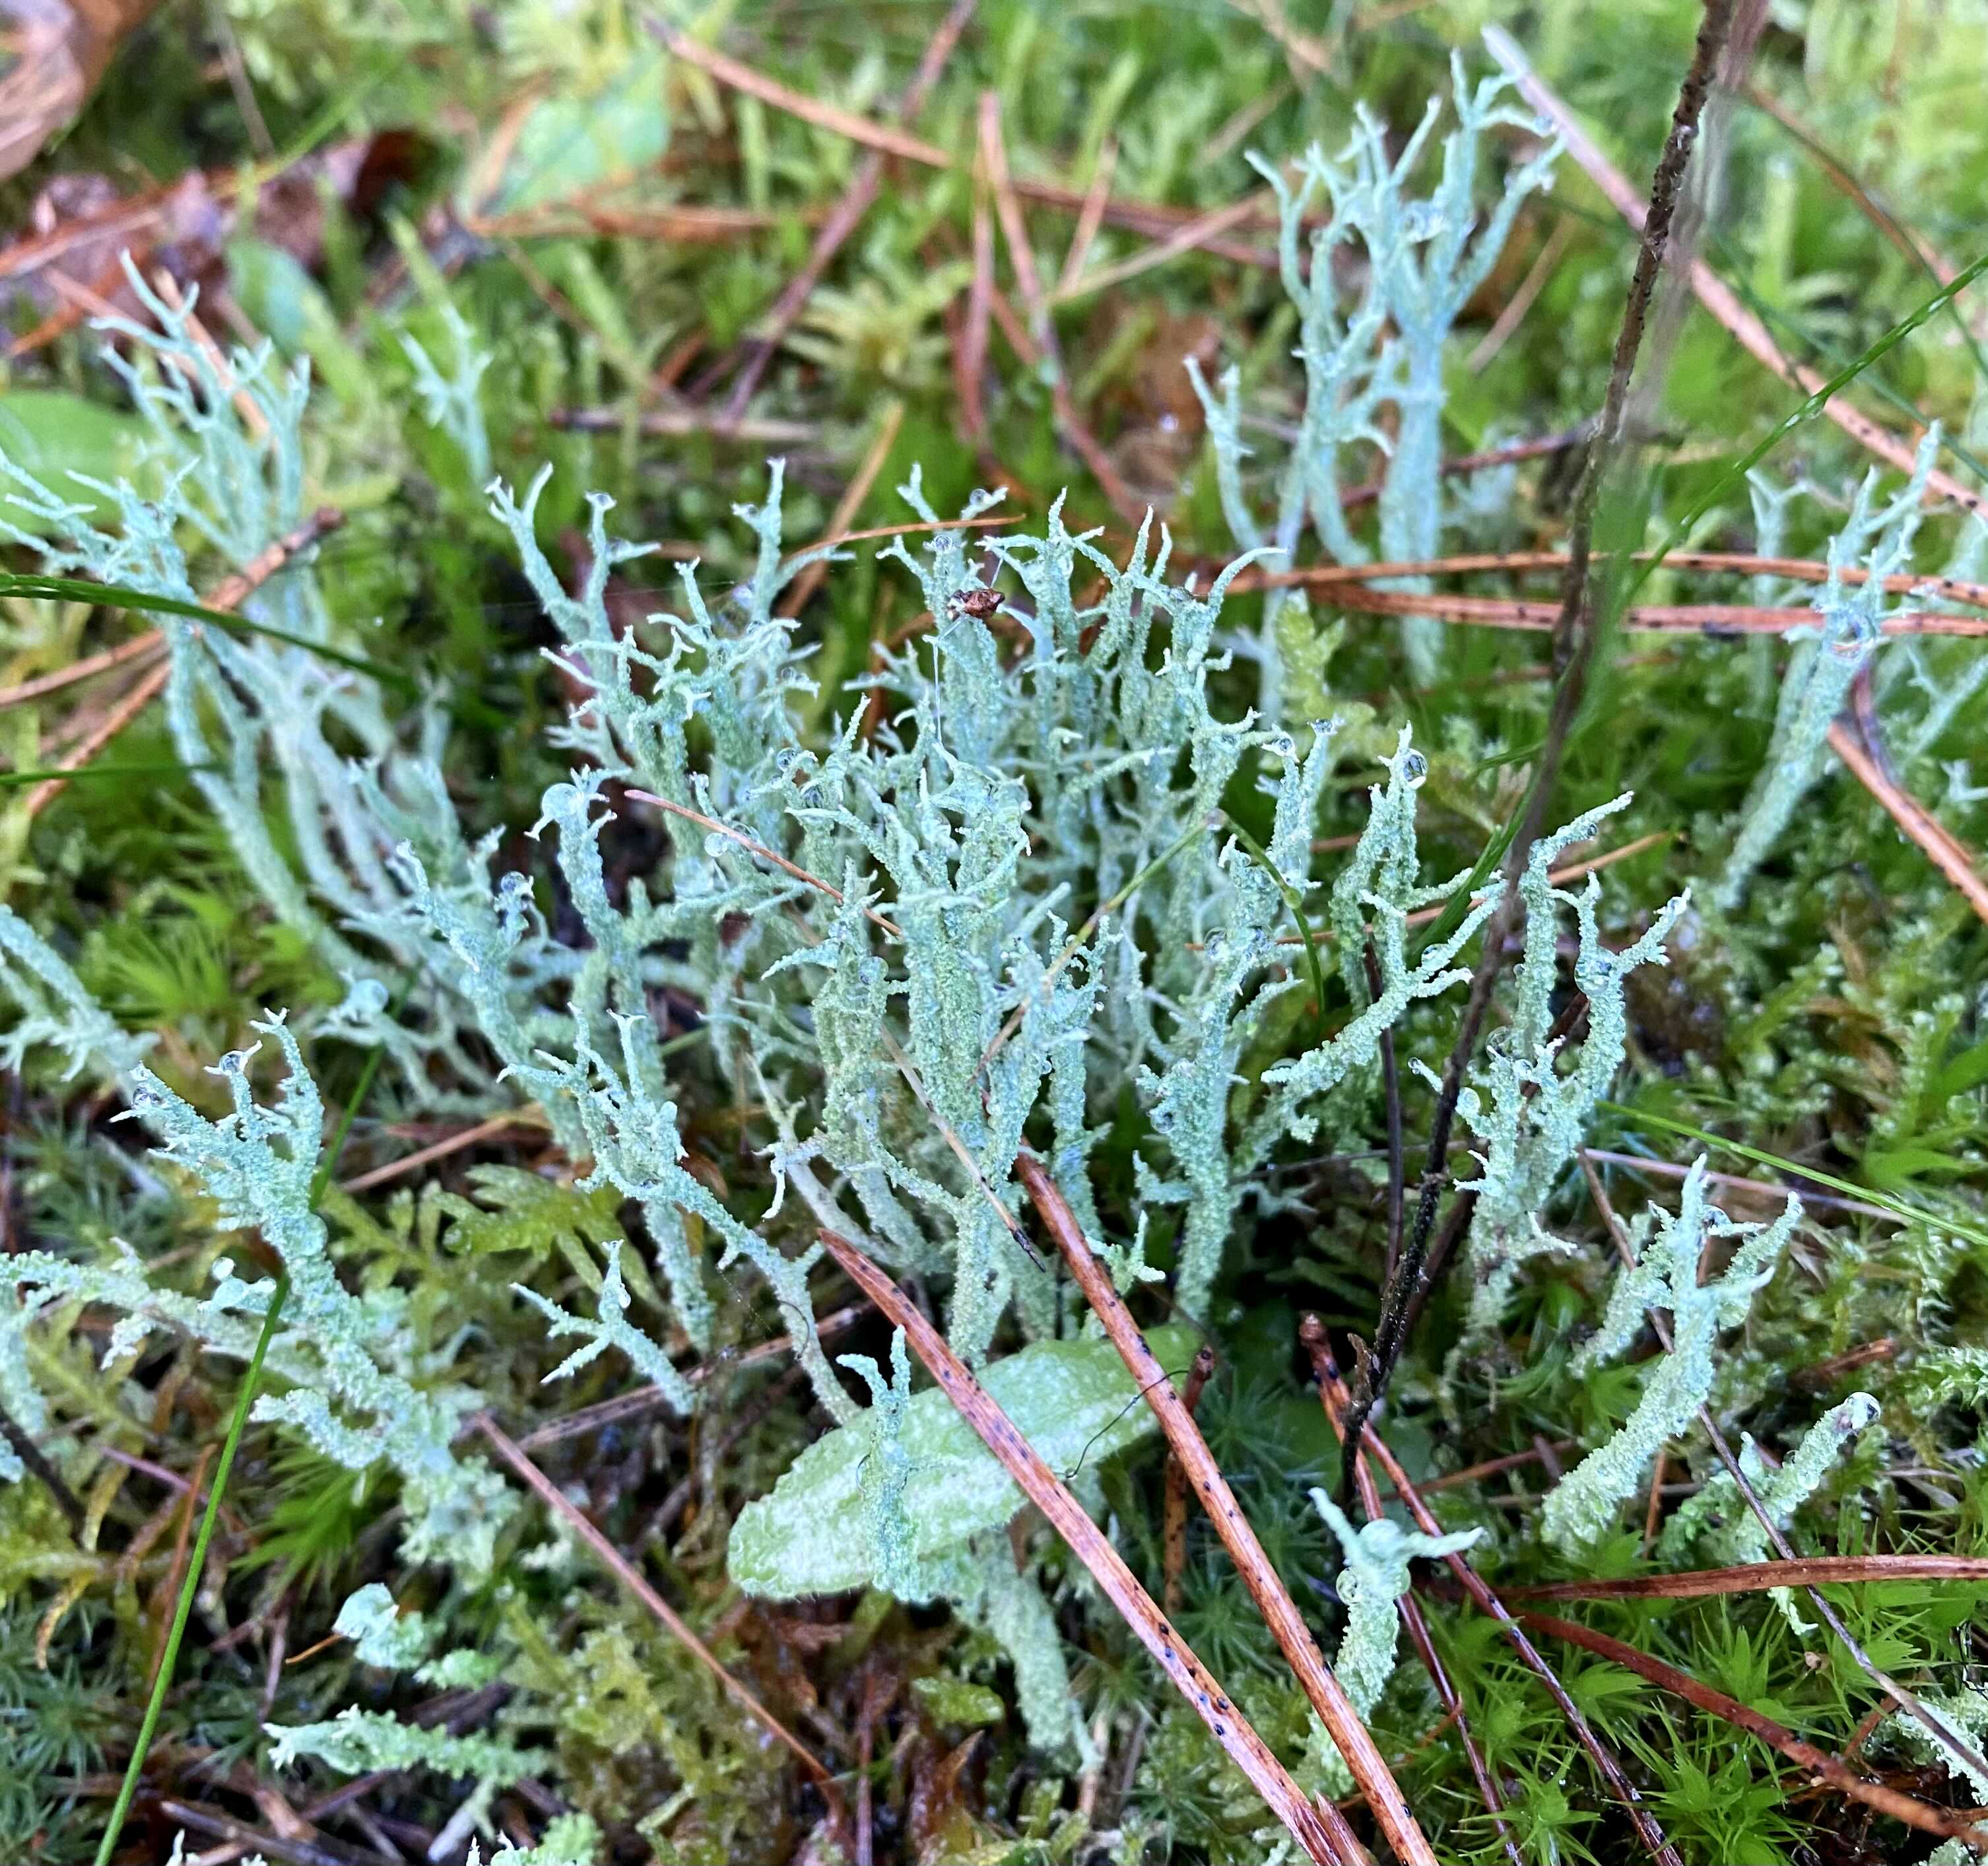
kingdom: Fungi
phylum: Ascomycota
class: Lecanoromycetes
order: Lecanorales
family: Cladoniaceae
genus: Cladonia
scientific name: Cladonia scabriuscula
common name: ru bægerlav
